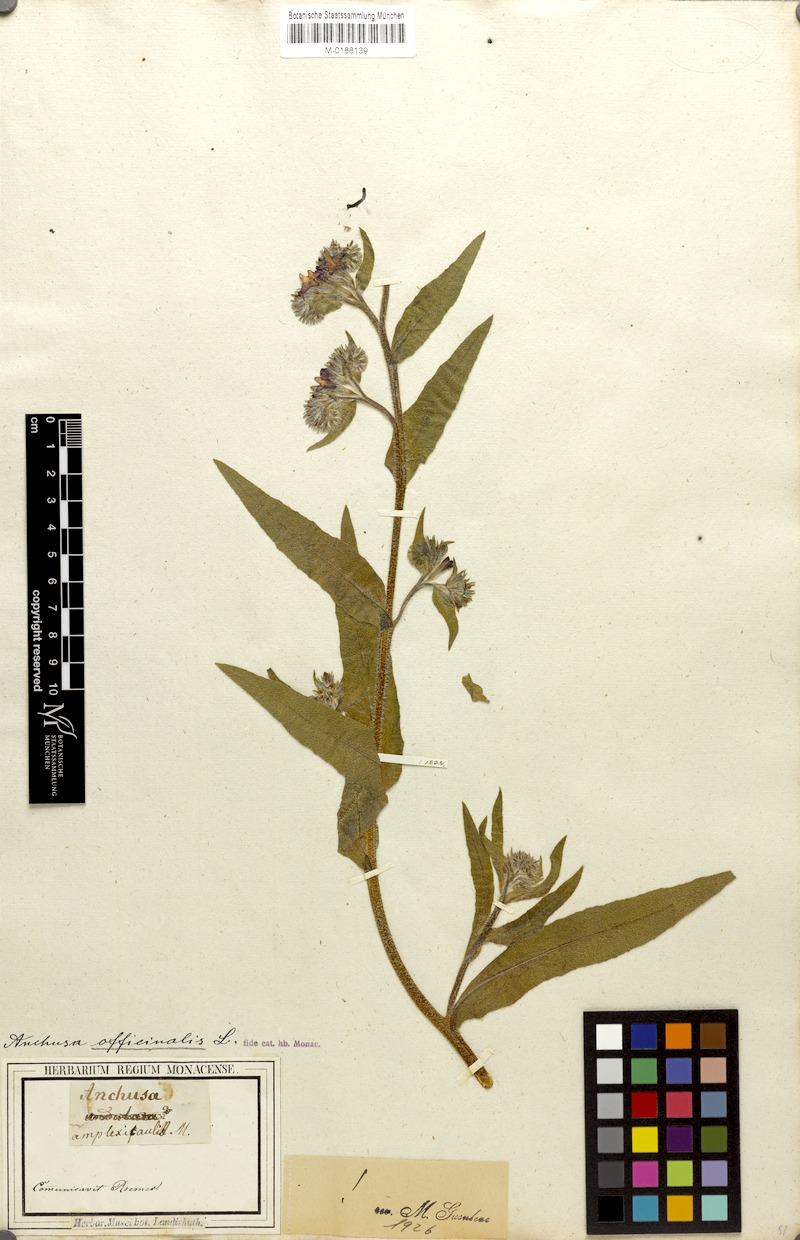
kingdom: Plantae
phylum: Tracheophyta
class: Magnoliopsida
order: Boraginales
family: Boraginaceae
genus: Anchusa
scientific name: Anchusa officinalis
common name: Alkanet
